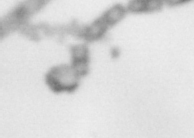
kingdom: Chromista
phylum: Ochrophyta
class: Bacillariophyceae
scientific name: Bacillariophyceae
